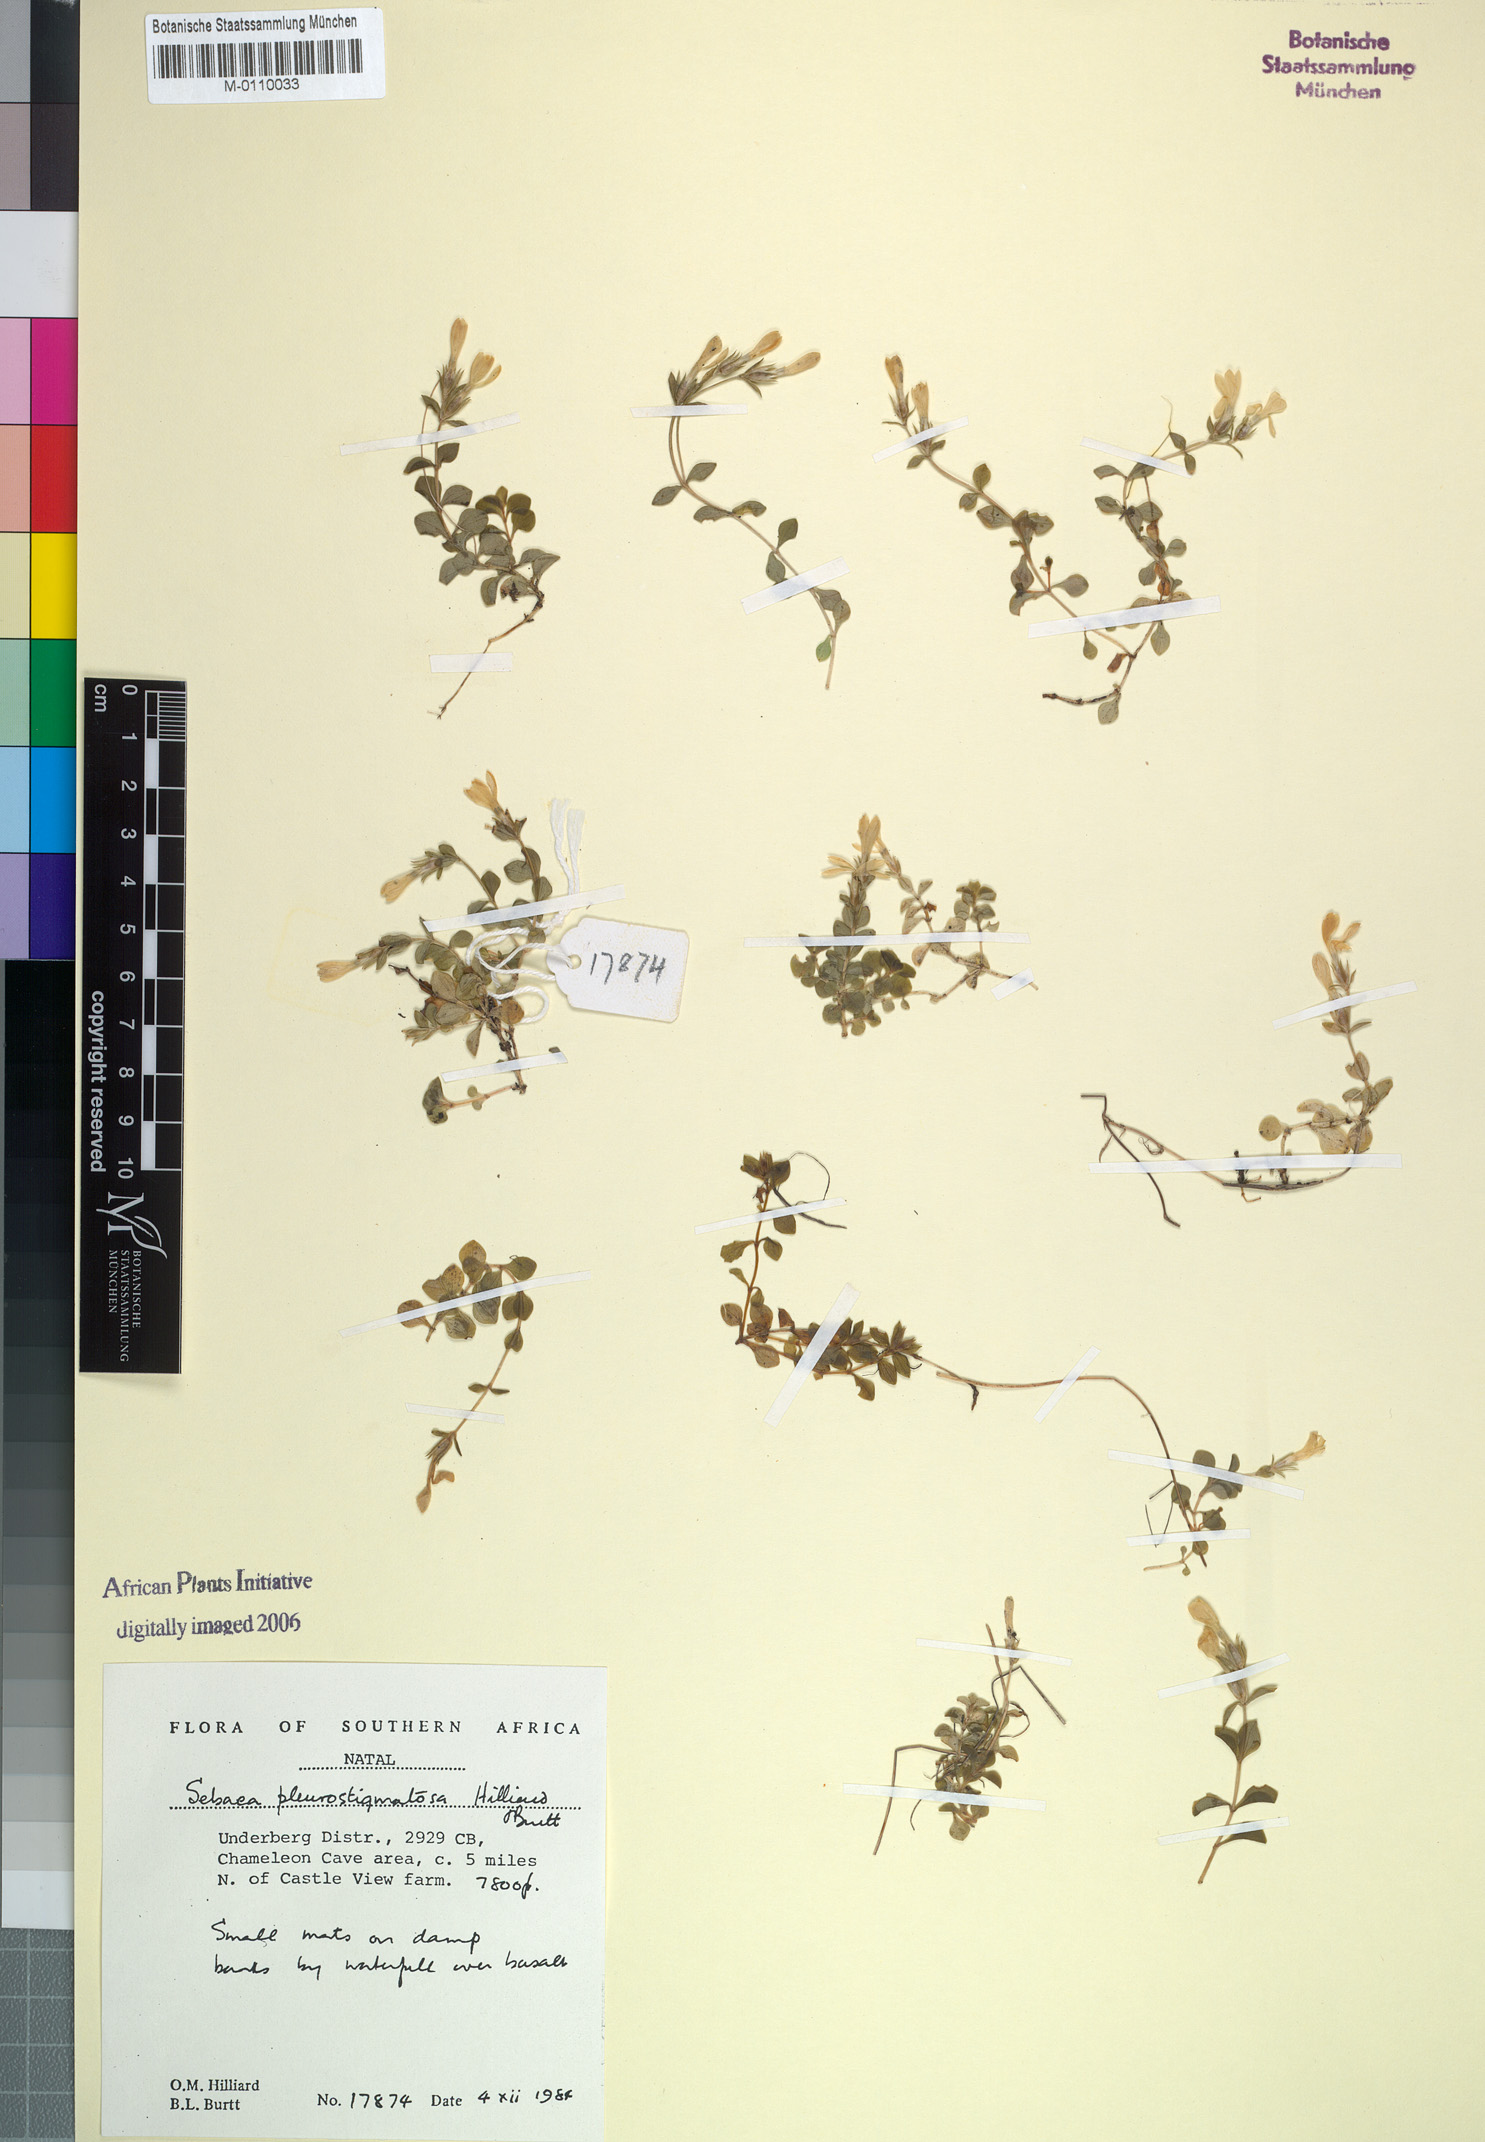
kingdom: Plantae
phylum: Tracheophyta
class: Magnoliopsida
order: Gentianales
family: Gentianaceae
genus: Sebaea
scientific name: Sebaea pleurostigmatosa
